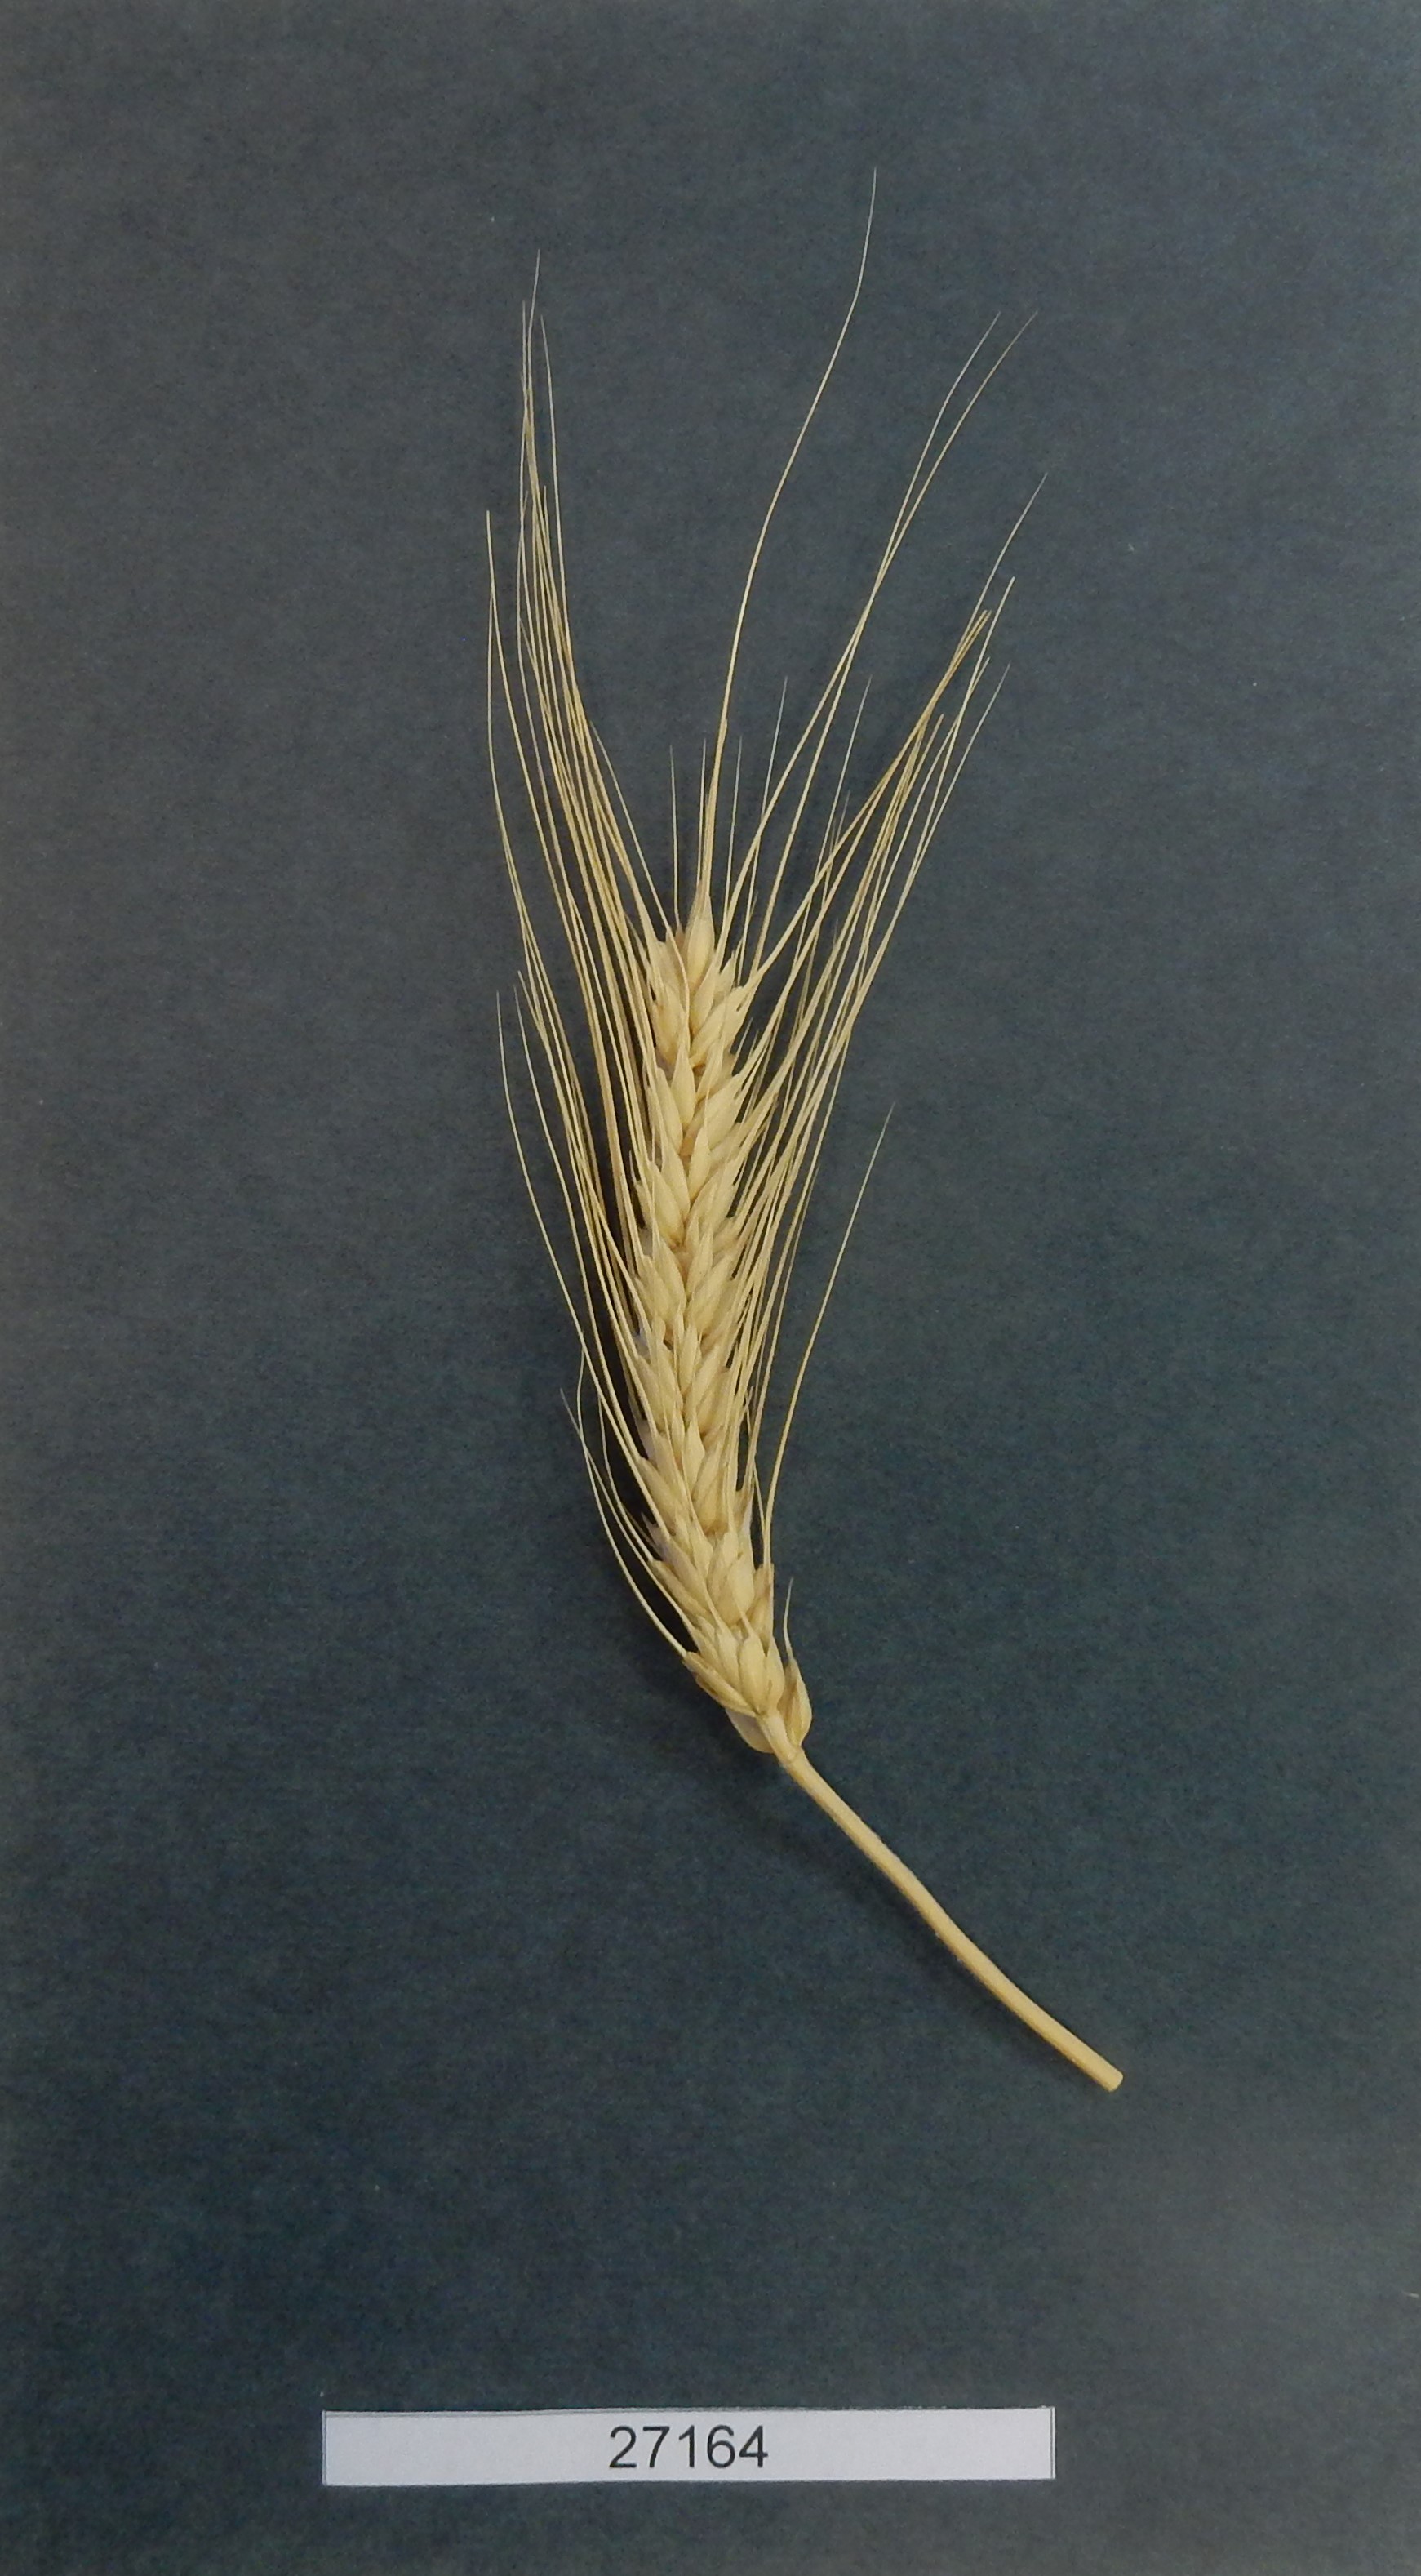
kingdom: Plantae
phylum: Tracheophyta
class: Liliopsida
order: Poales
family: Poaceae
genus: Triticum
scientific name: Triticum aestivum
